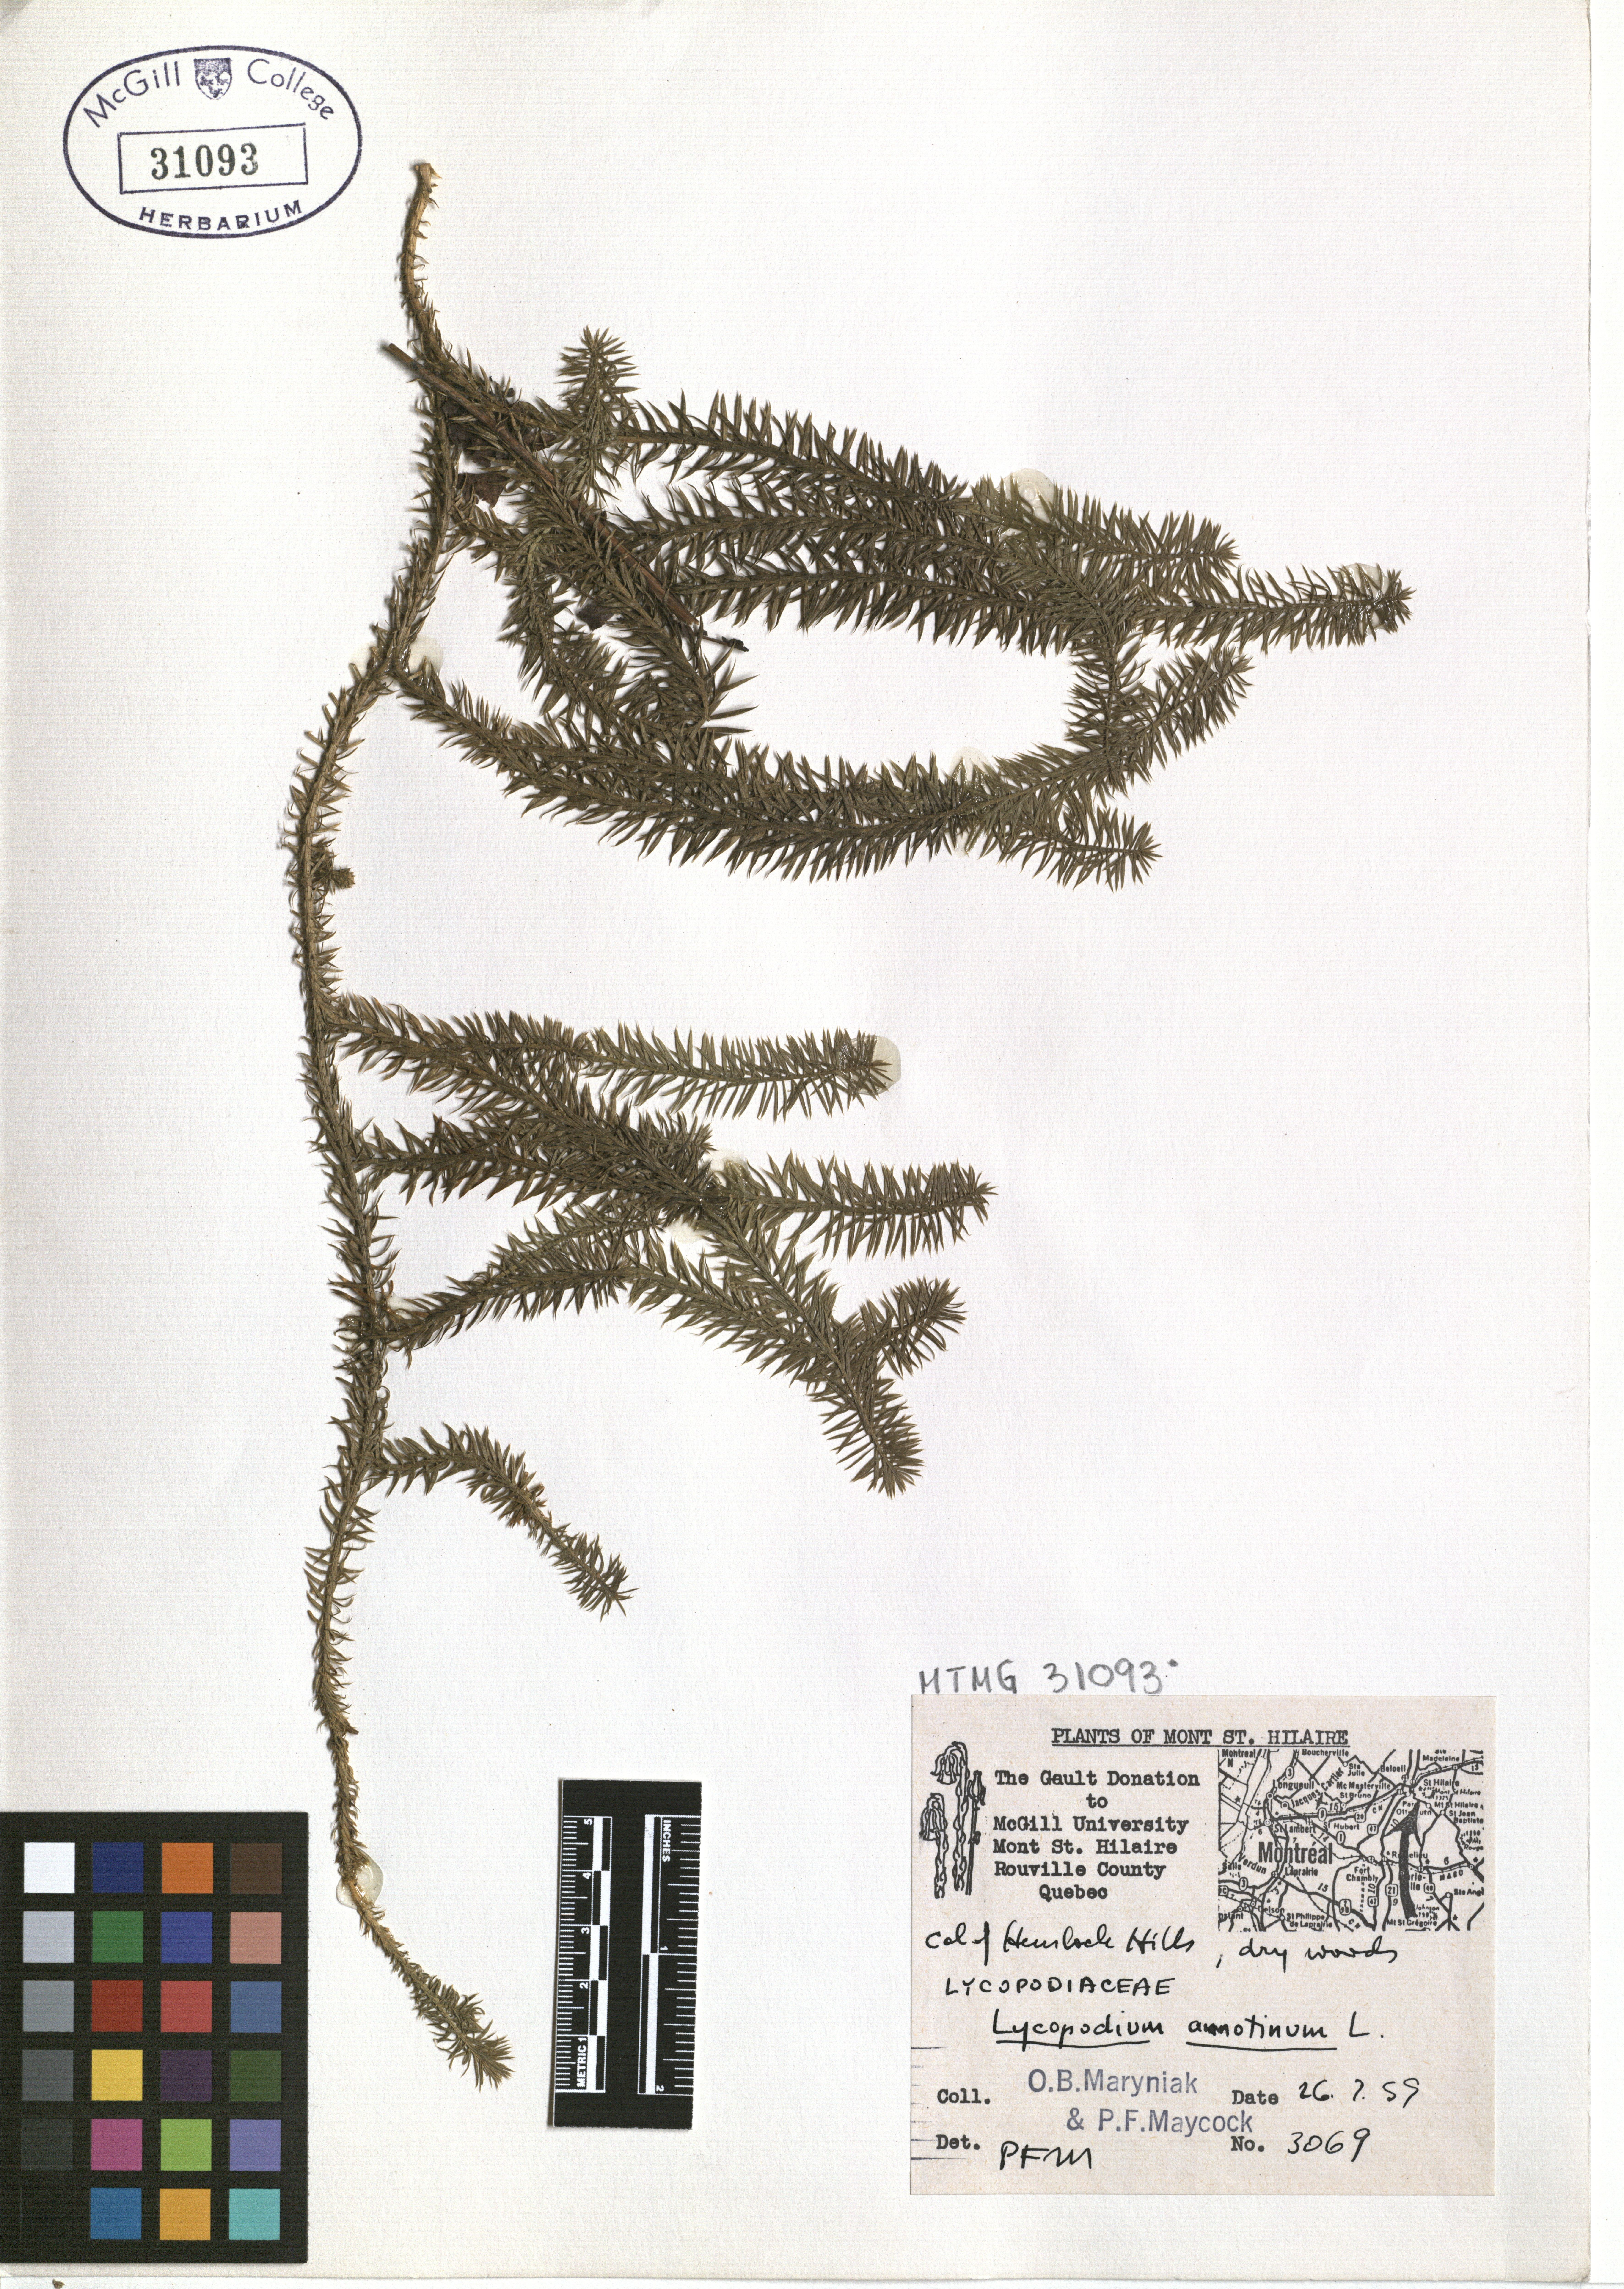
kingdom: Plantae
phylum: Tracheophyta
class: Lycopodiopsida
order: Lycopodiales
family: Lycopodiaceae
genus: Spinulum
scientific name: Spinulum annotinum
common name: Interrupted club-moss
